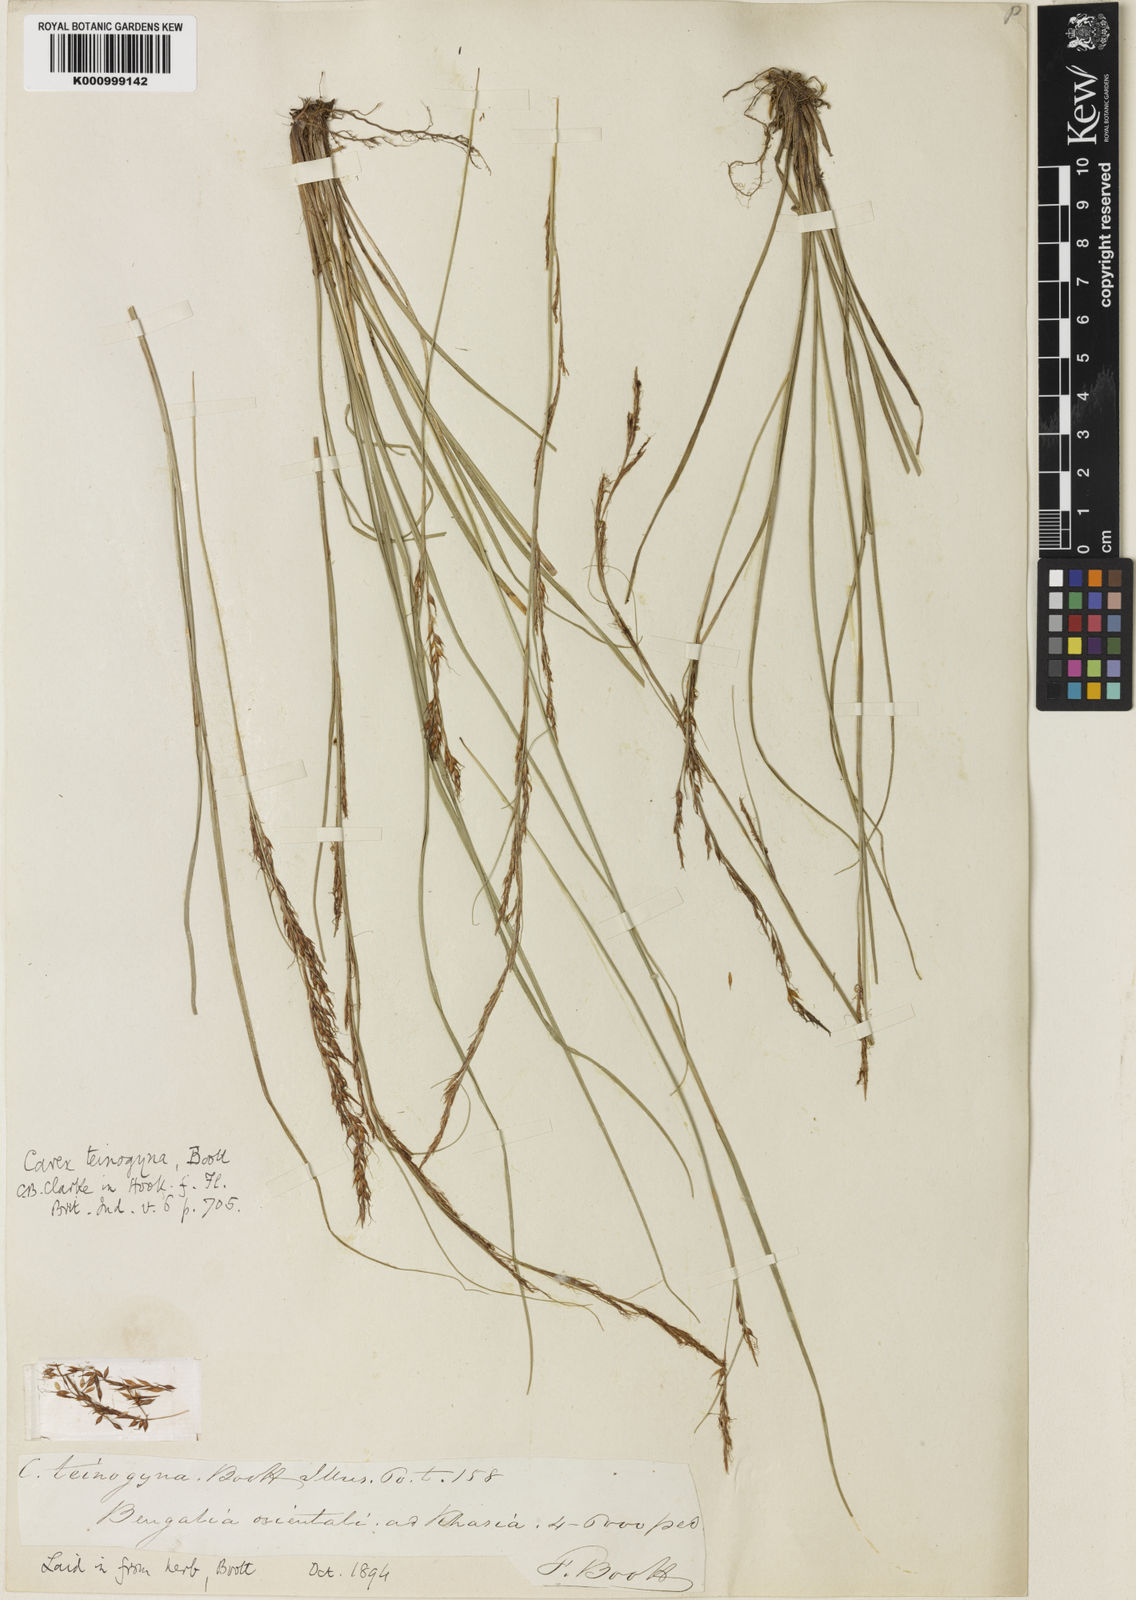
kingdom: Plantae
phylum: Tracheophyta
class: Liliopsida
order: Poales
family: Cyperaceae
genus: Carex
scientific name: Carex teinogyna
